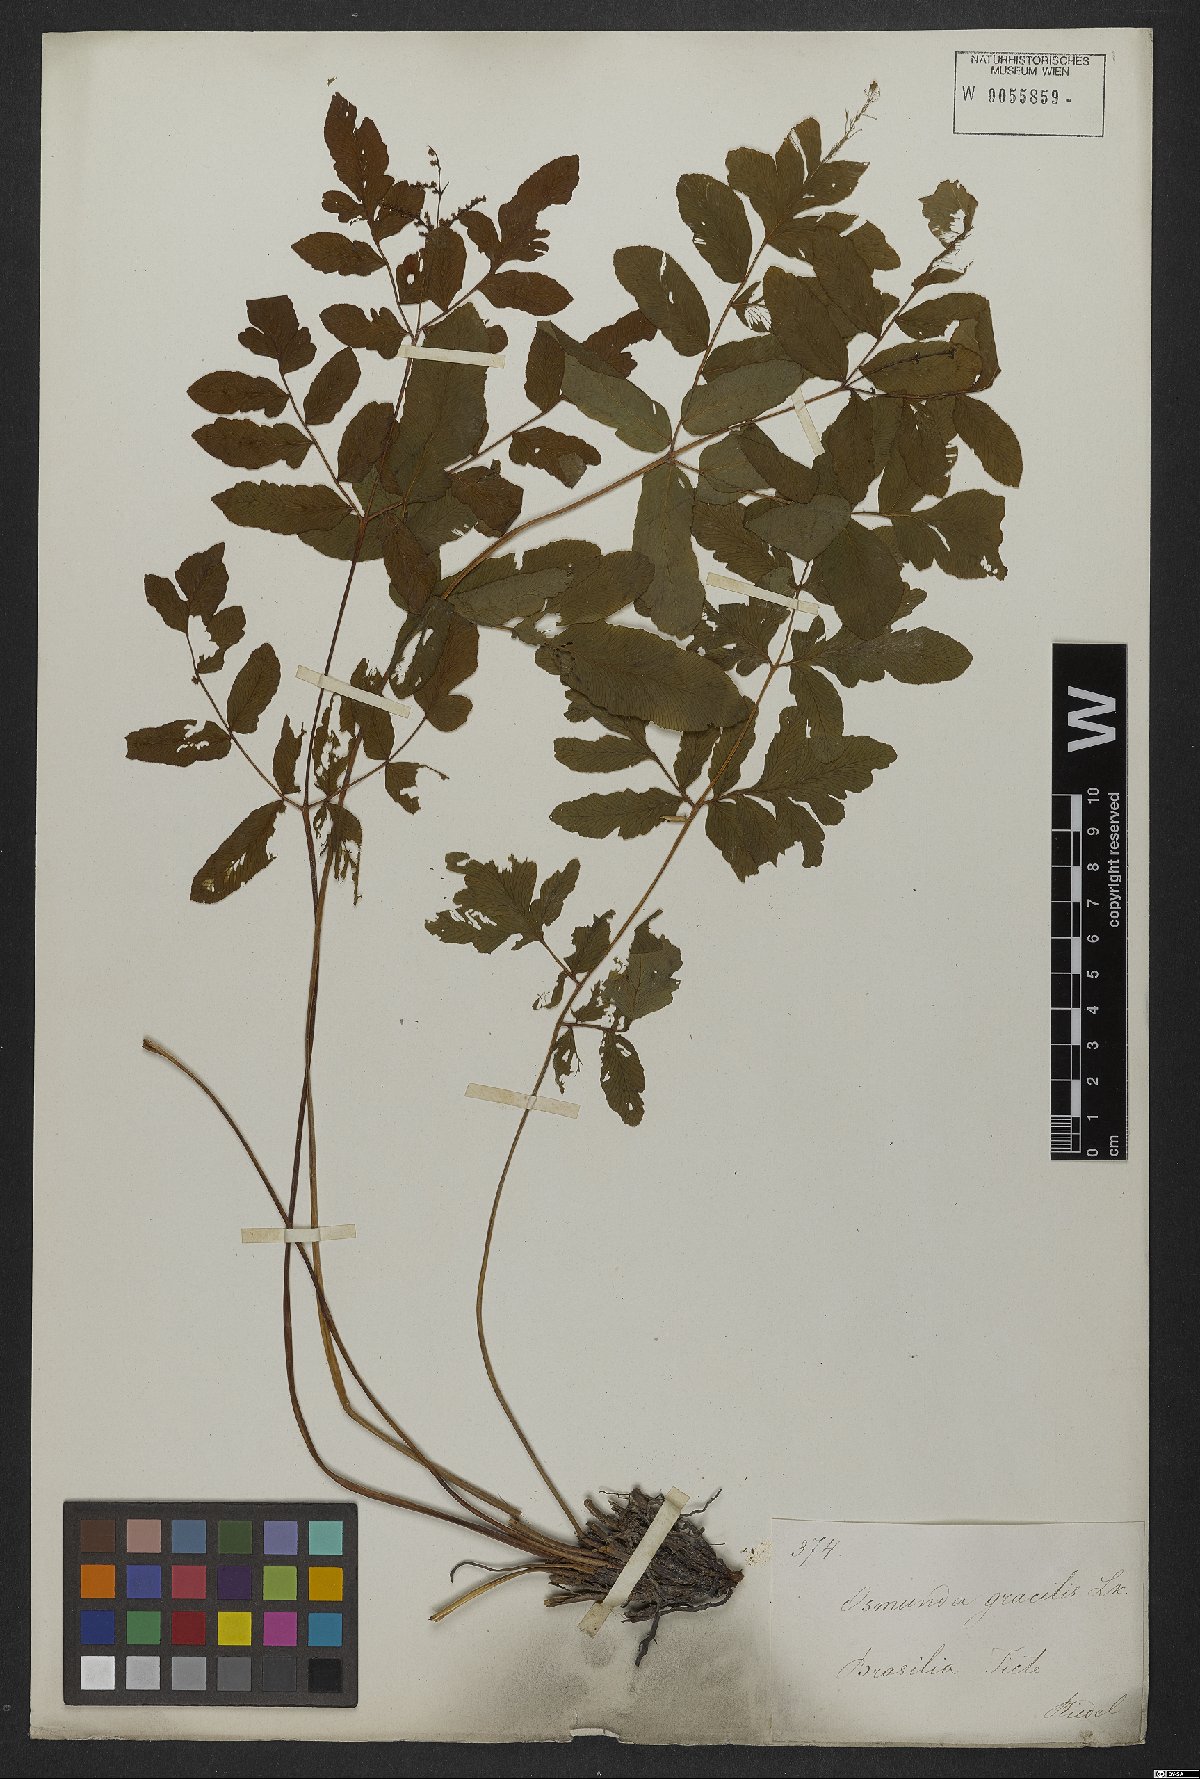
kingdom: Plantae
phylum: Tracheophyta
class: Polypodiopsida
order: Osmundales
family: Osmundaceae
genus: Osmunda
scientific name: Osmunda spectabilis
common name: American royal fern
